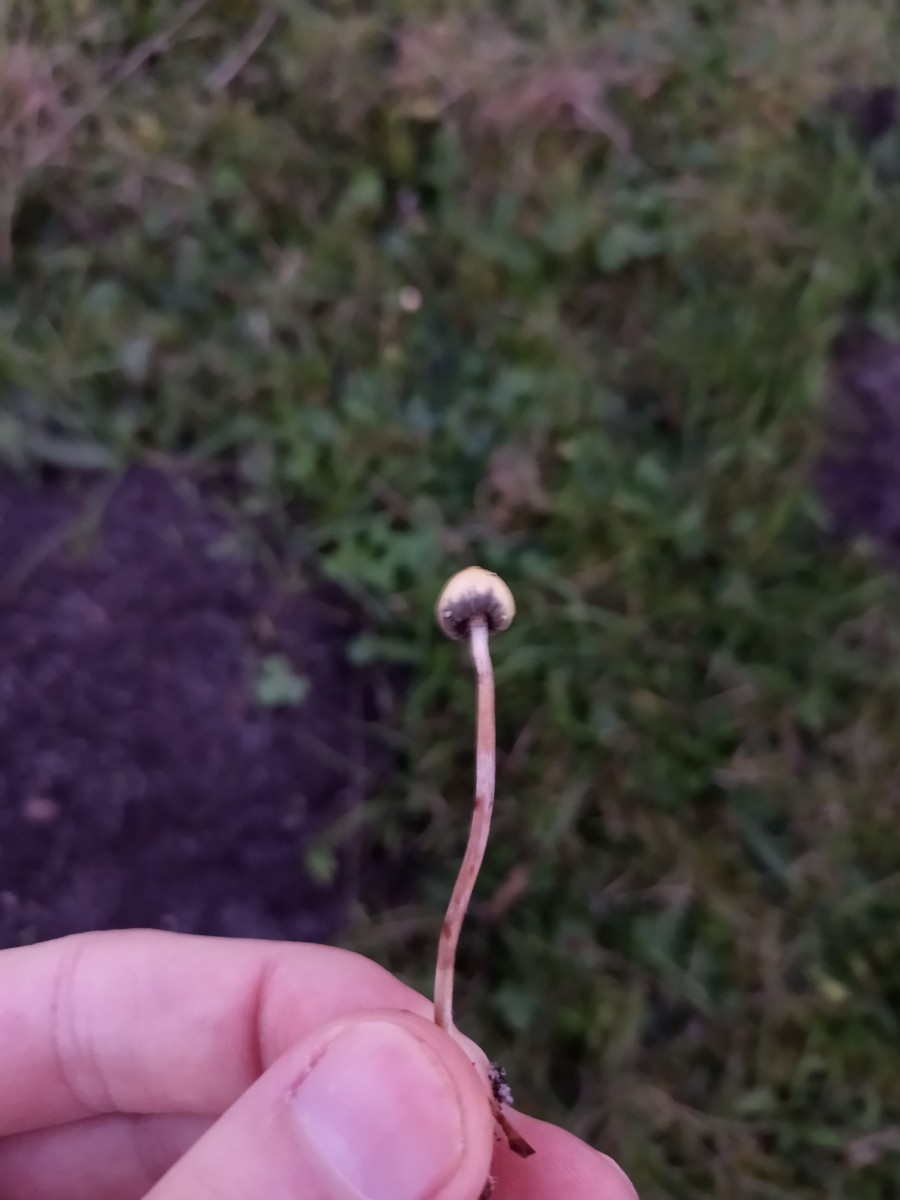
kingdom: Fungi
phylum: Basidiomycota
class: Agaricomycetes
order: Agaricales
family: Hymenogastraceae
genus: Psilocybe
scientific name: Psilocybe semilanceata
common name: spids nøgenhat
